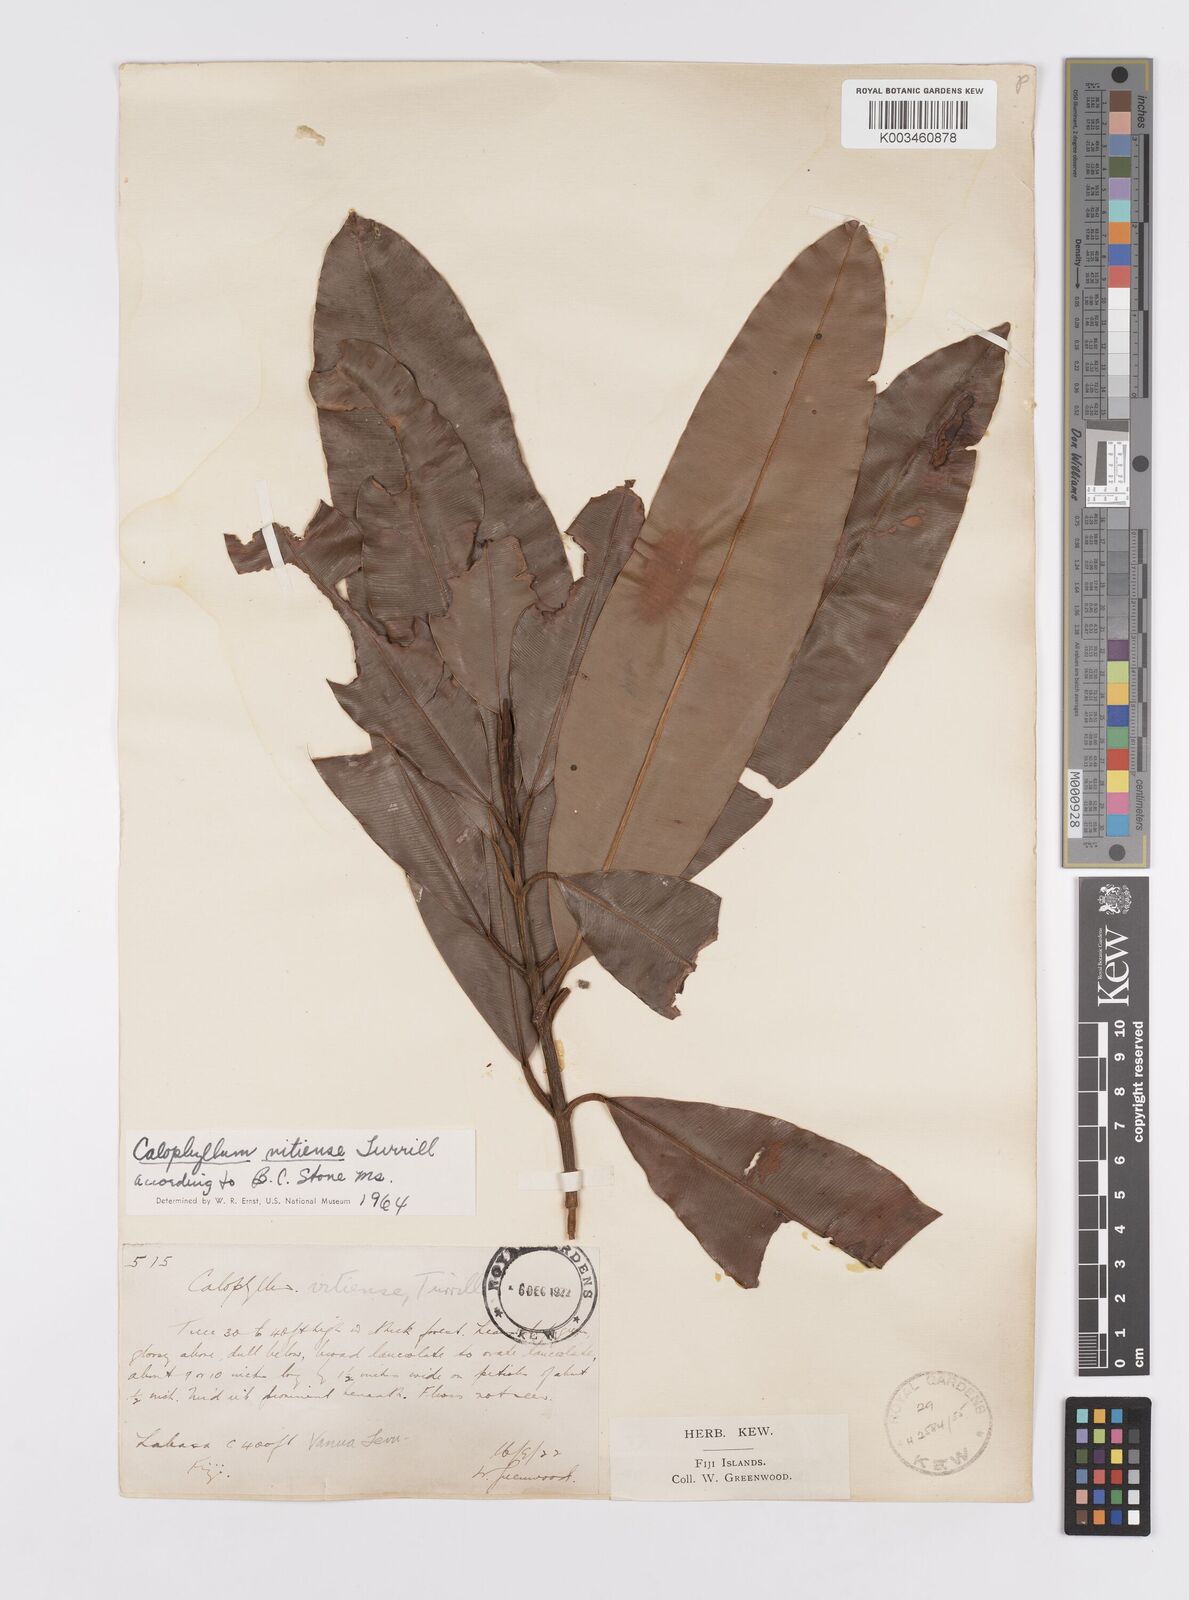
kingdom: Plantae
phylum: Tracheophyta
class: Magnoliopsida
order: Malpighiales
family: Calophyllaceae
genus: Calophyllum
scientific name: Calophyllum vitiense
